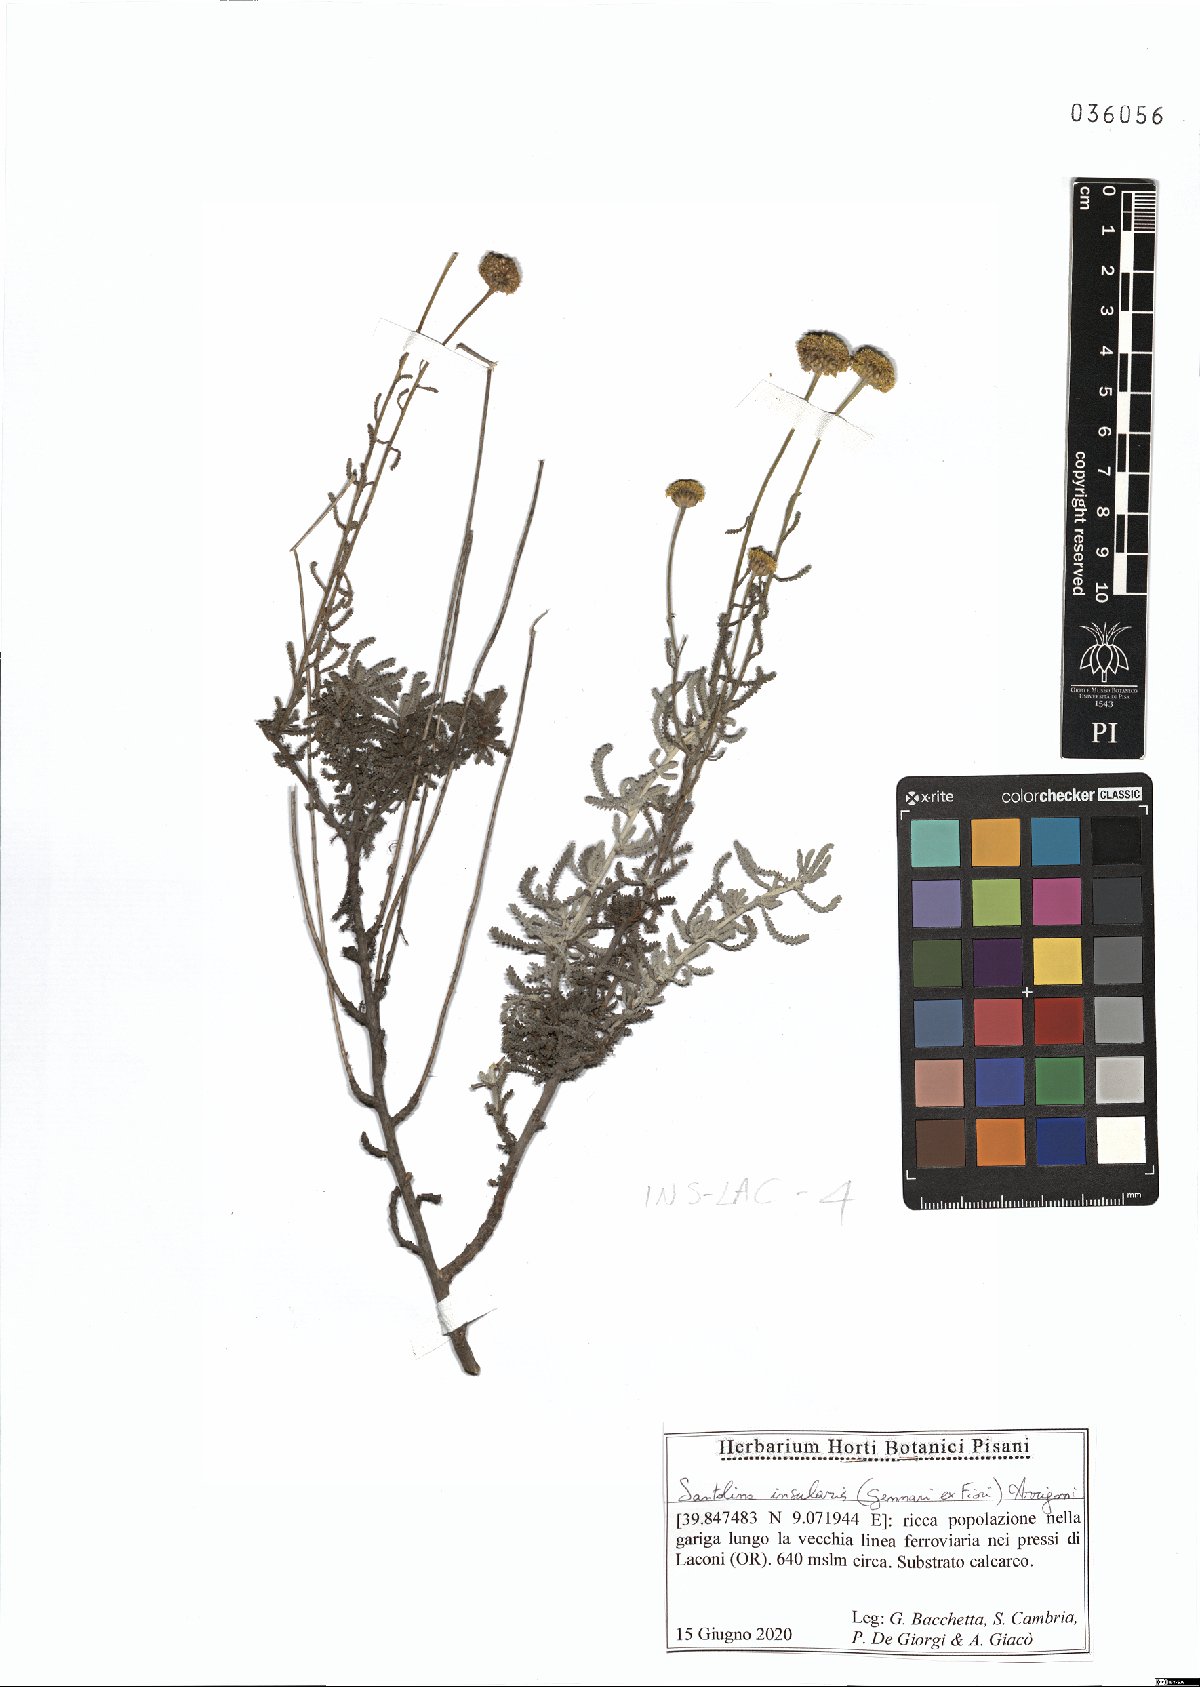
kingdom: Plantae
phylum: Tracheophyta
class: Magnoliopsida
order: Asterales
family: Asteraceae
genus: Santolina
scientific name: Santolina insularis
